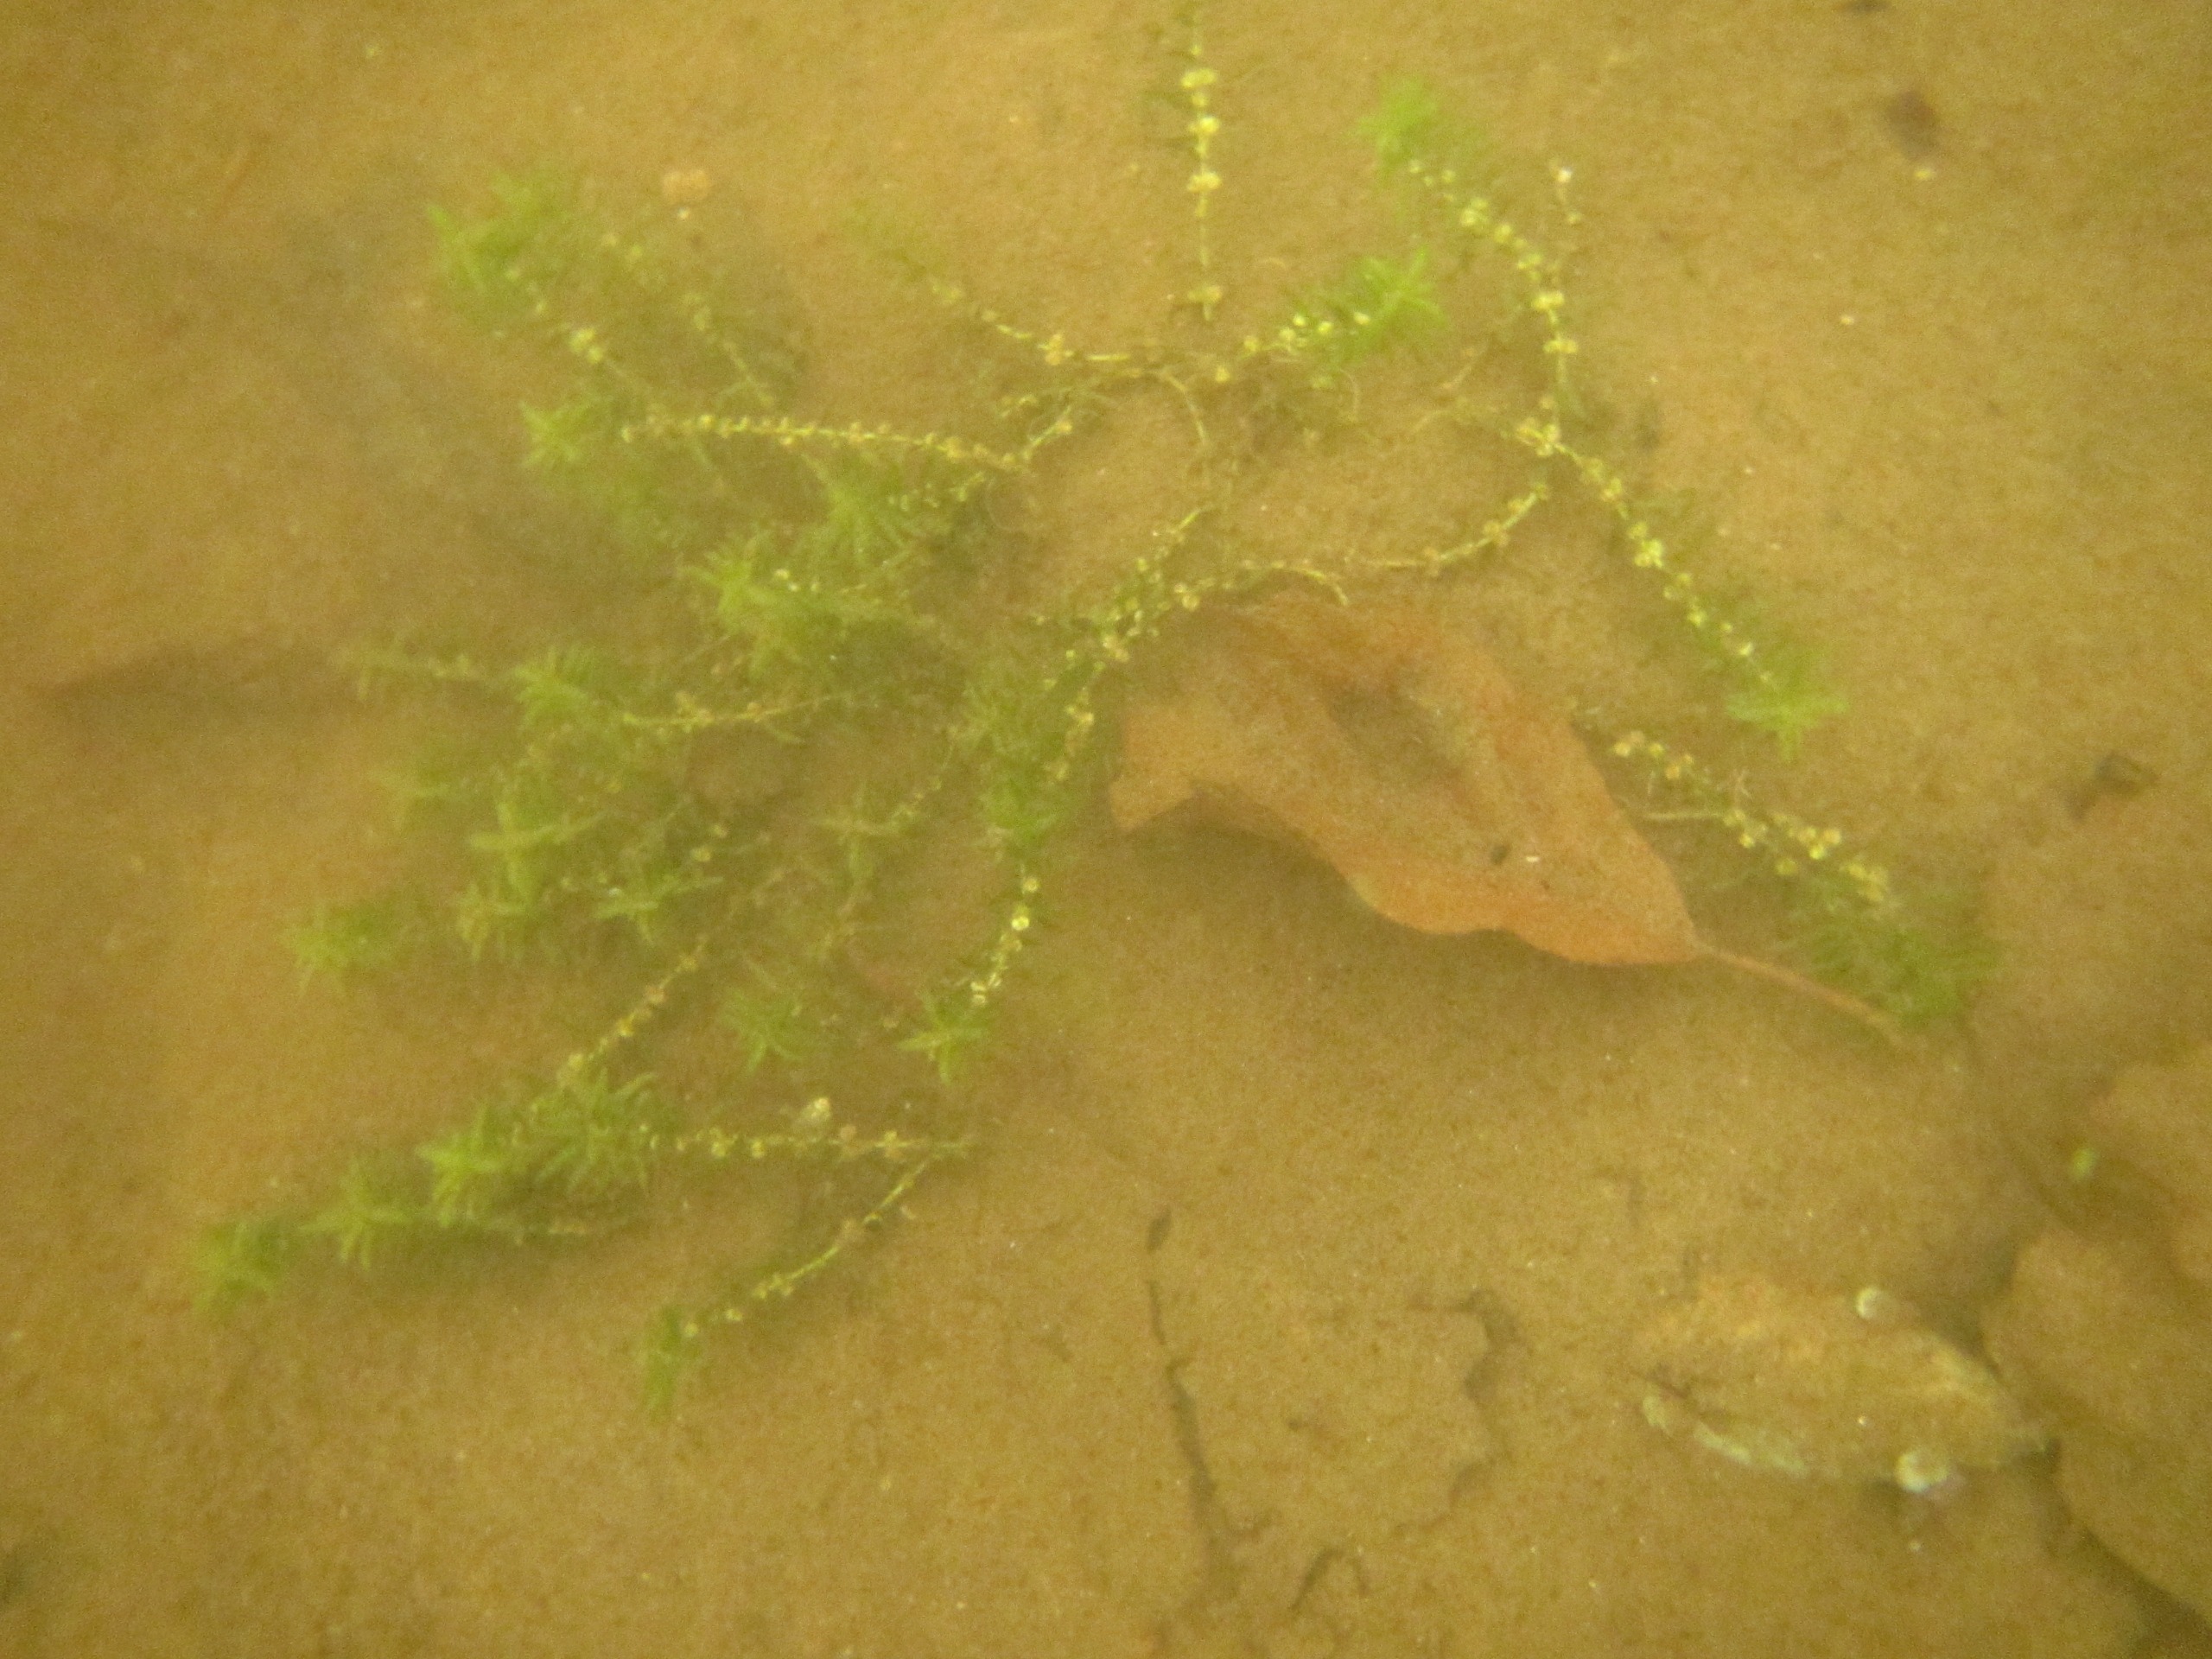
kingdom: Plantae
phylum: Tracheophyta
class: Magnoliopsida
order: Lamiales
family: Plantaginaceae
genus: Callitriche
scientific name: Callitriche hermaphroditica
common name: Høst-vandstjerne
